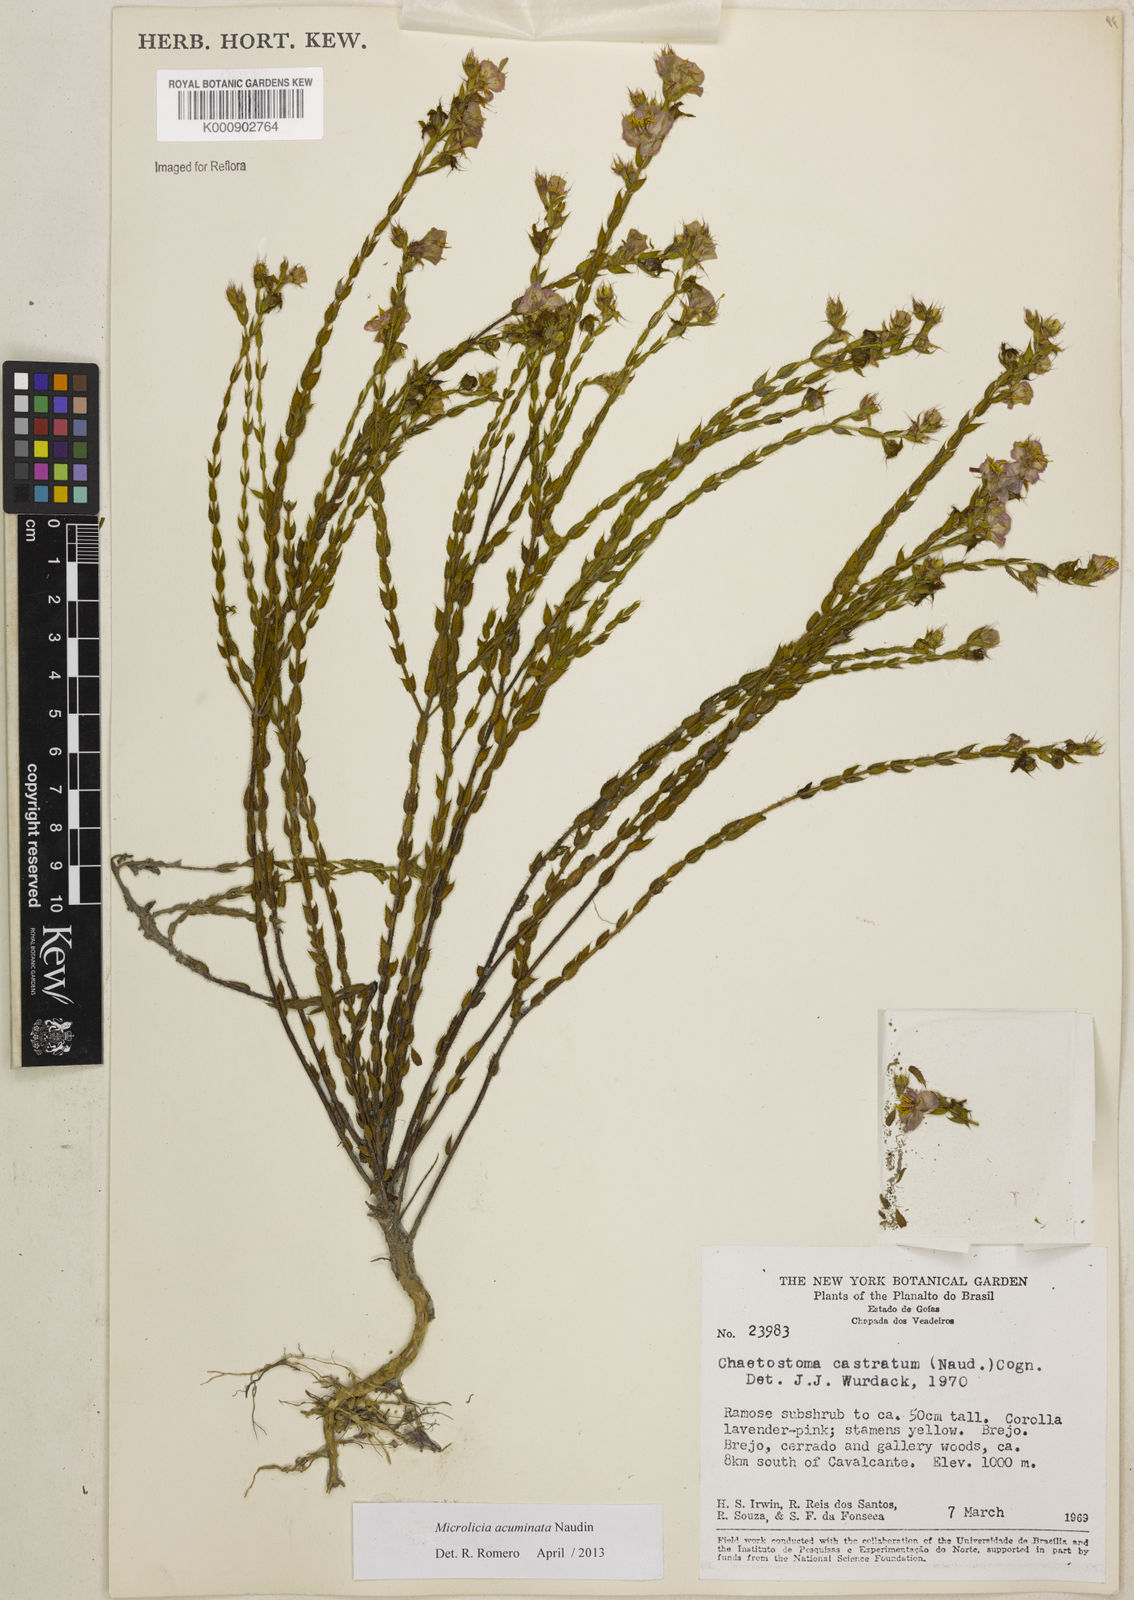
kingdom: Plantae
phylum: Tracheophyta
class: Magnoliopsida
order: Myrtales
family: Melastomataceae
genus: Microlicia
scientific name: Microlicia
